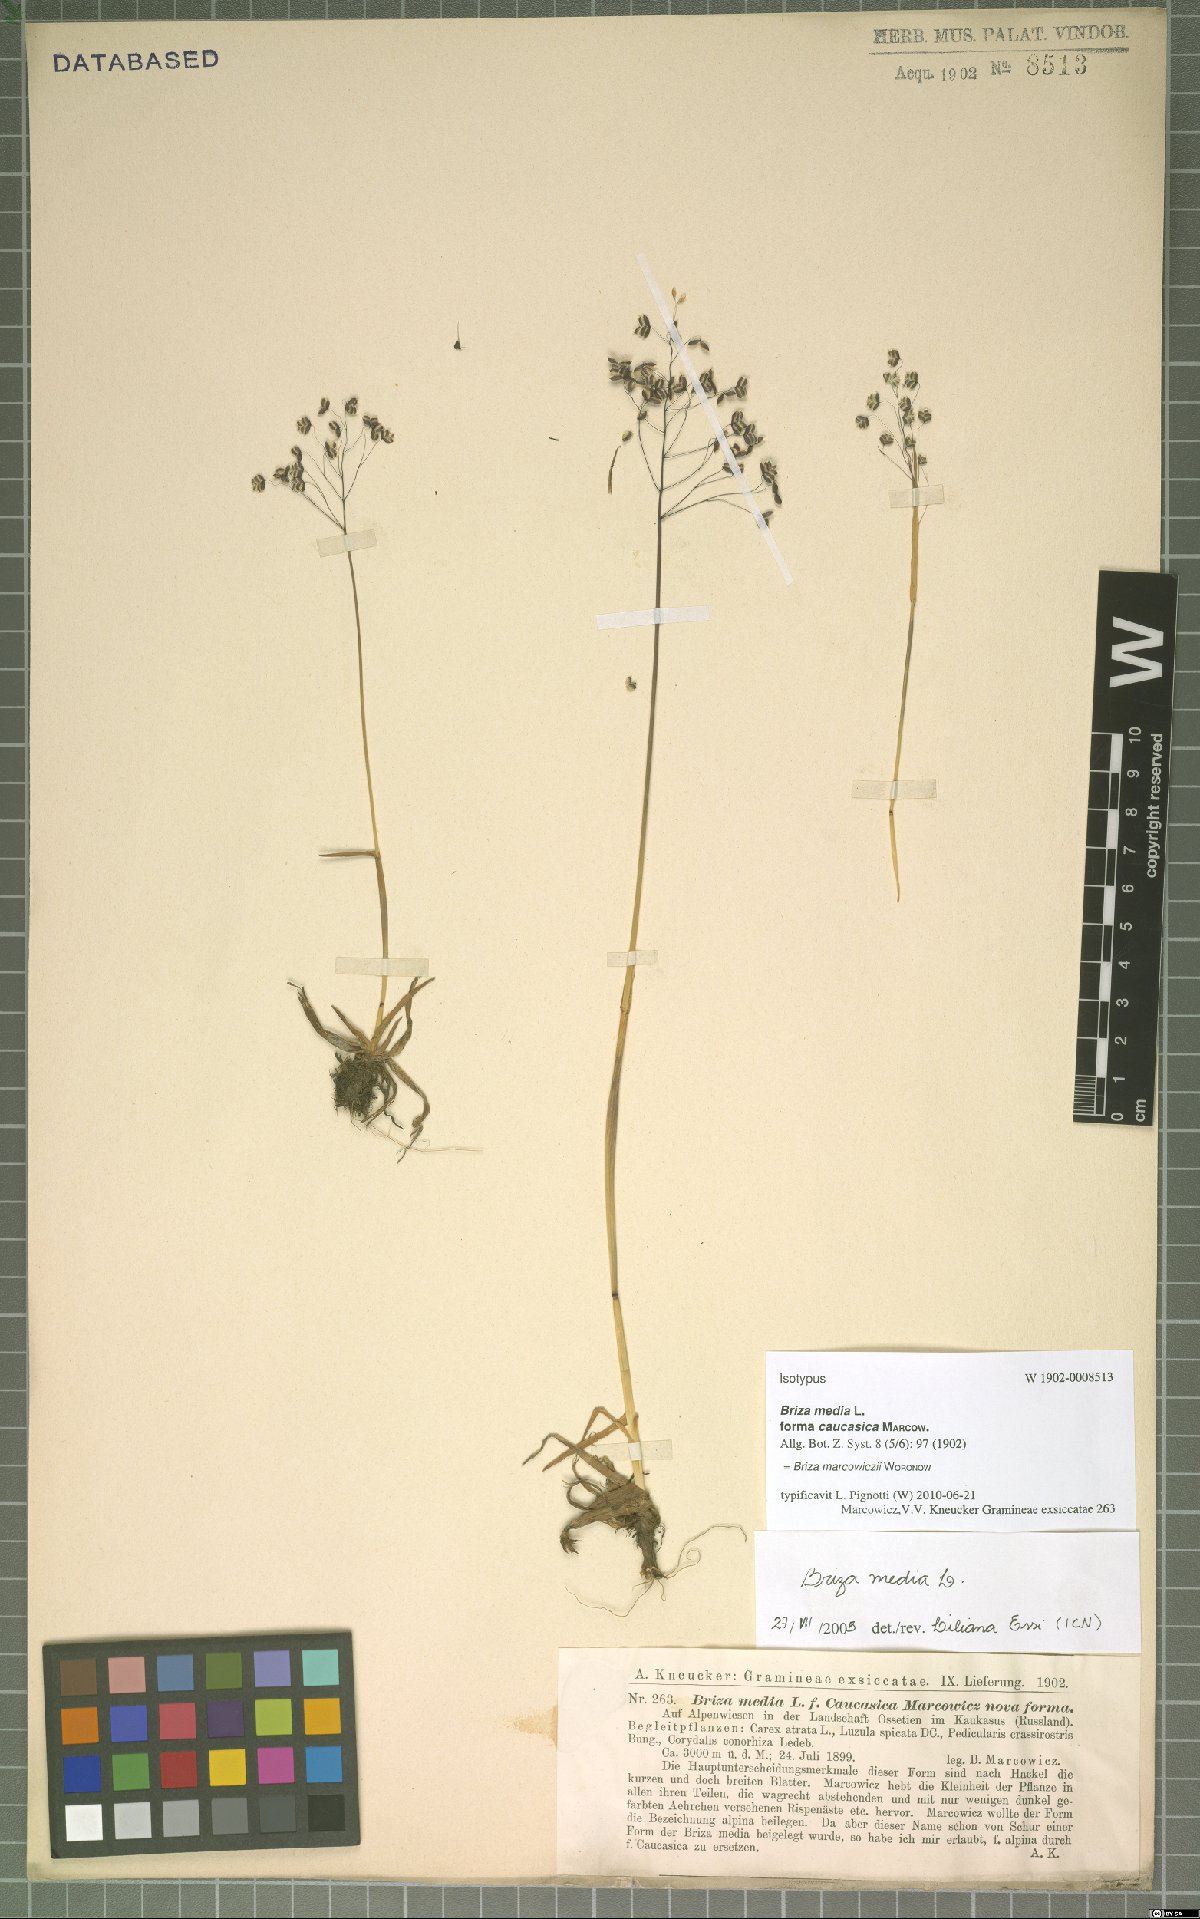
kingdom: Plantae
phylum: Tracheophyta
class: Liliopsida
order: Poales
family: Poaceae
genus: Briza
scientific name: Briza marcowiczii
